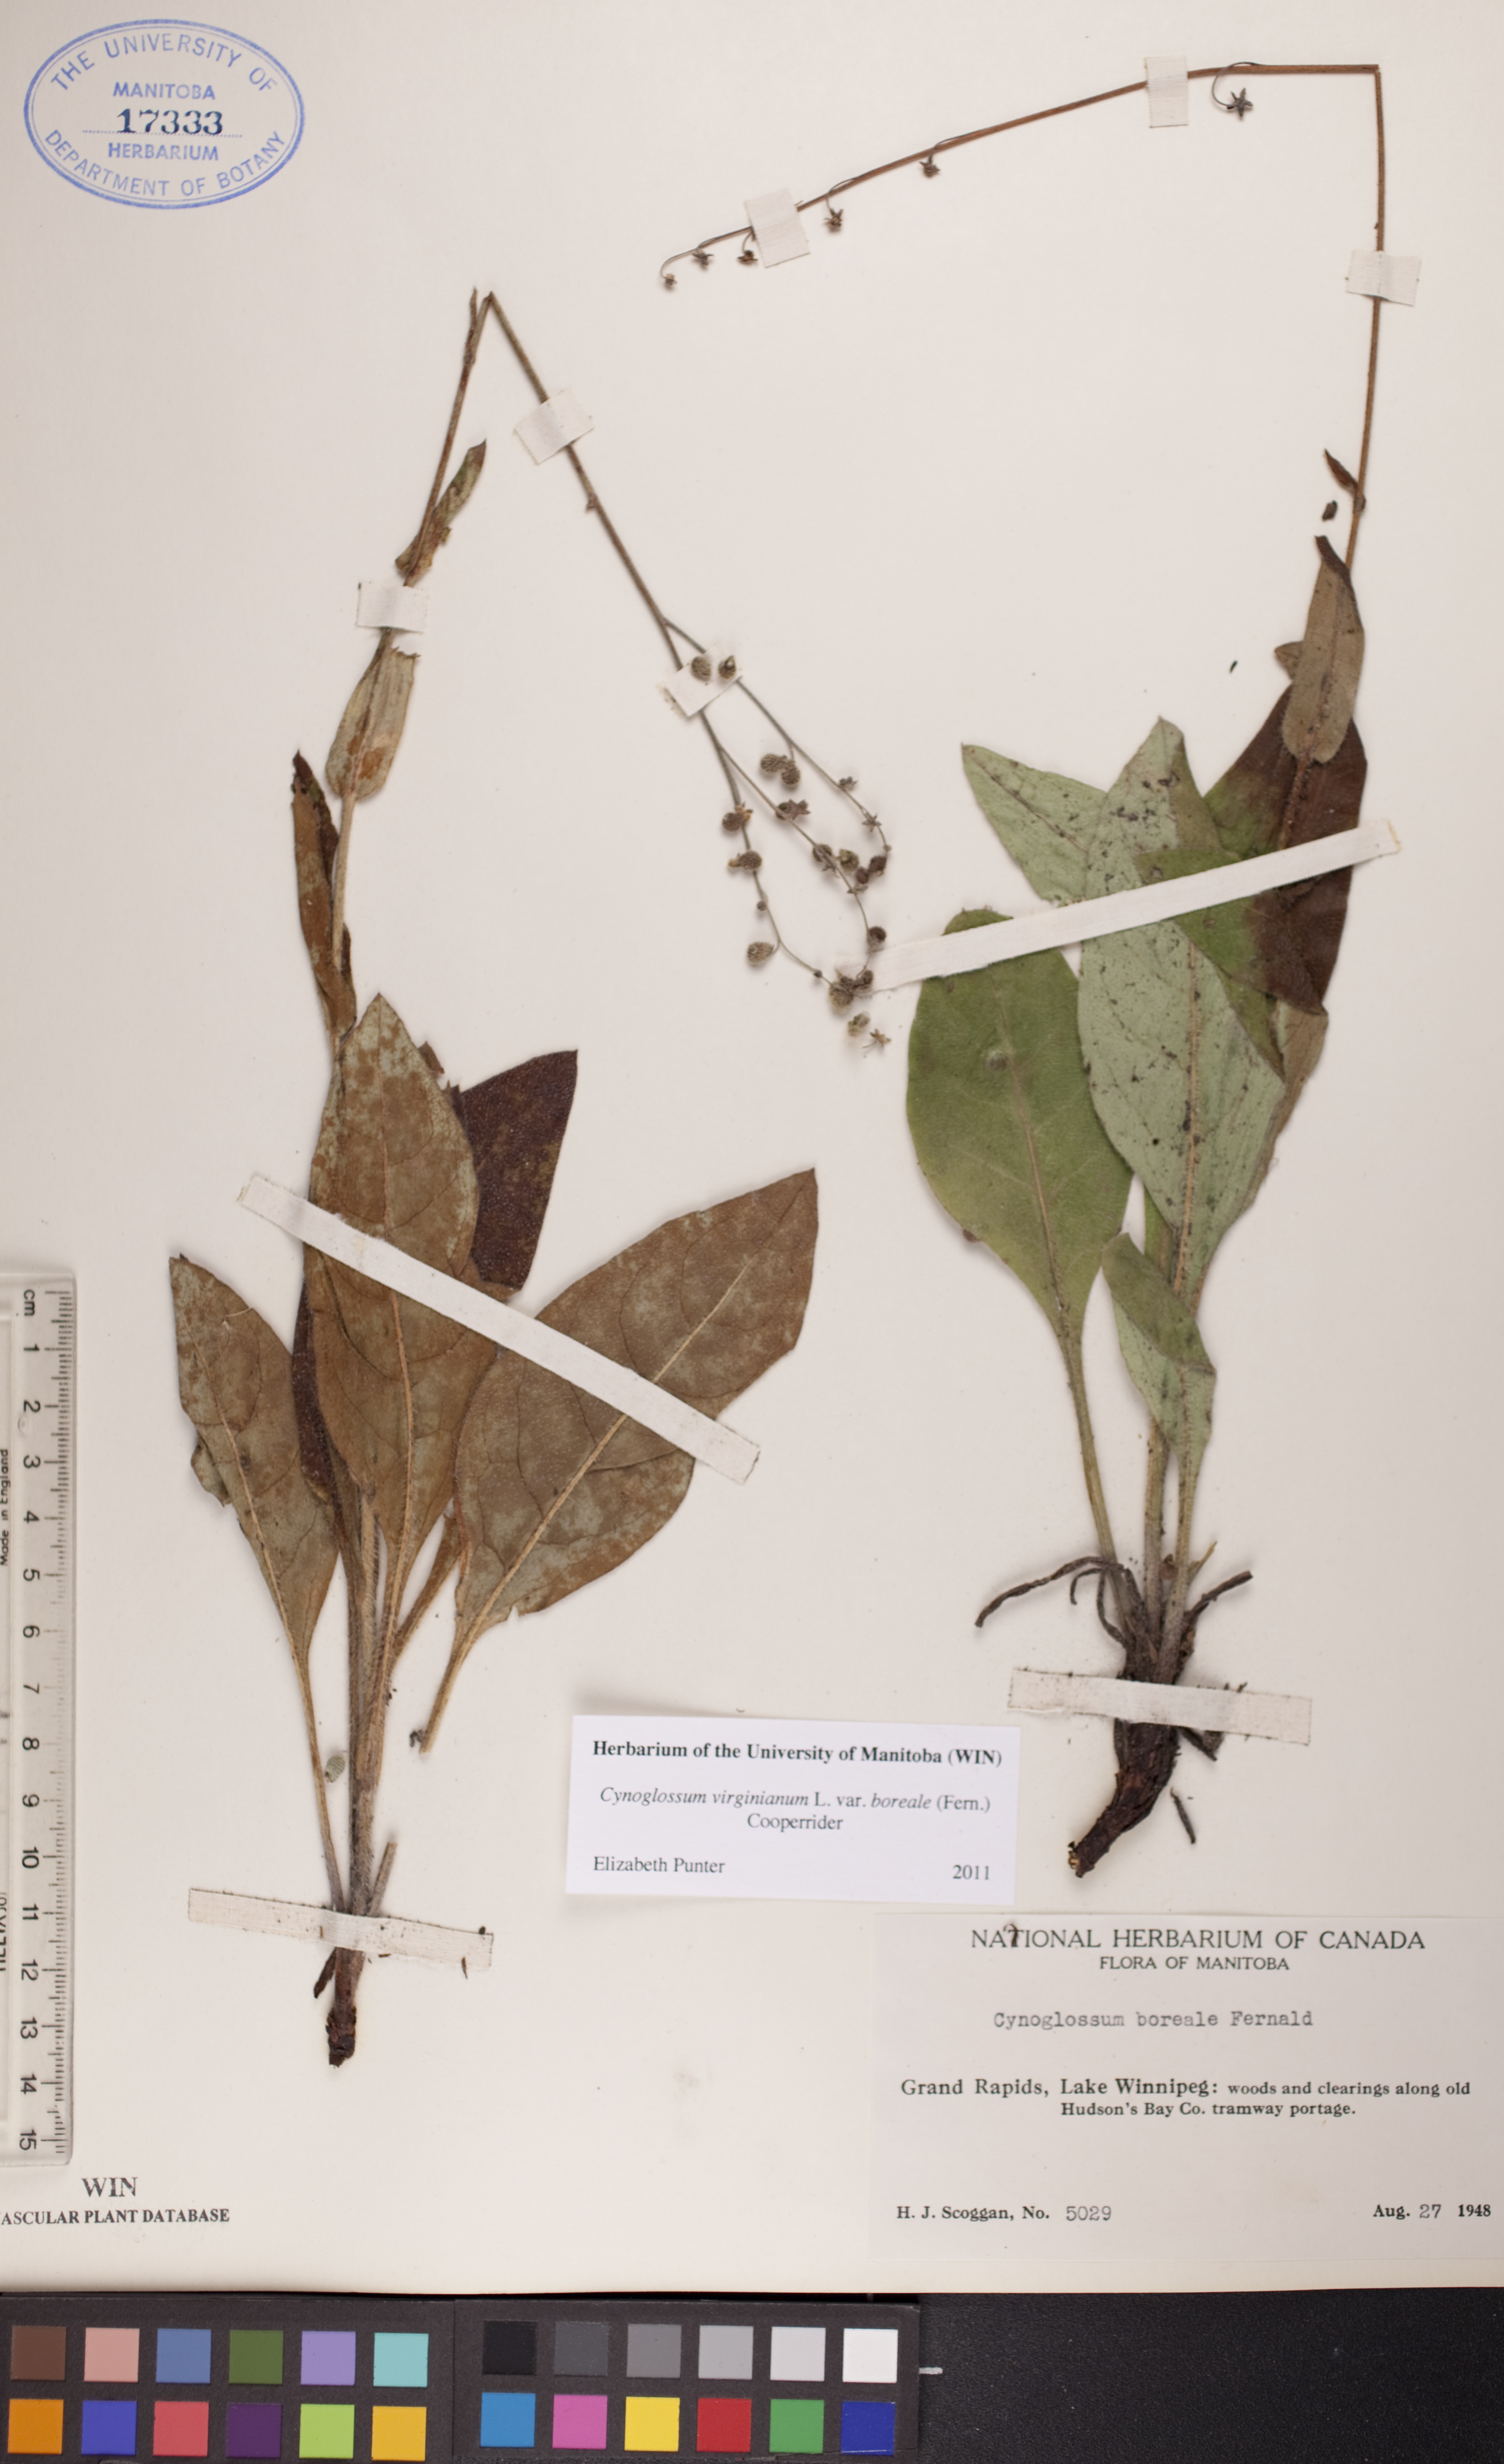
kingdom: Plantae
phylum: Tracheophyta
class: Magnoliopsida
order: Boraginales
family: Boraginaceae
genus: Andersonglossum
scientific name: Andersonglossum boreale
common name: Northern hound's-tongue
